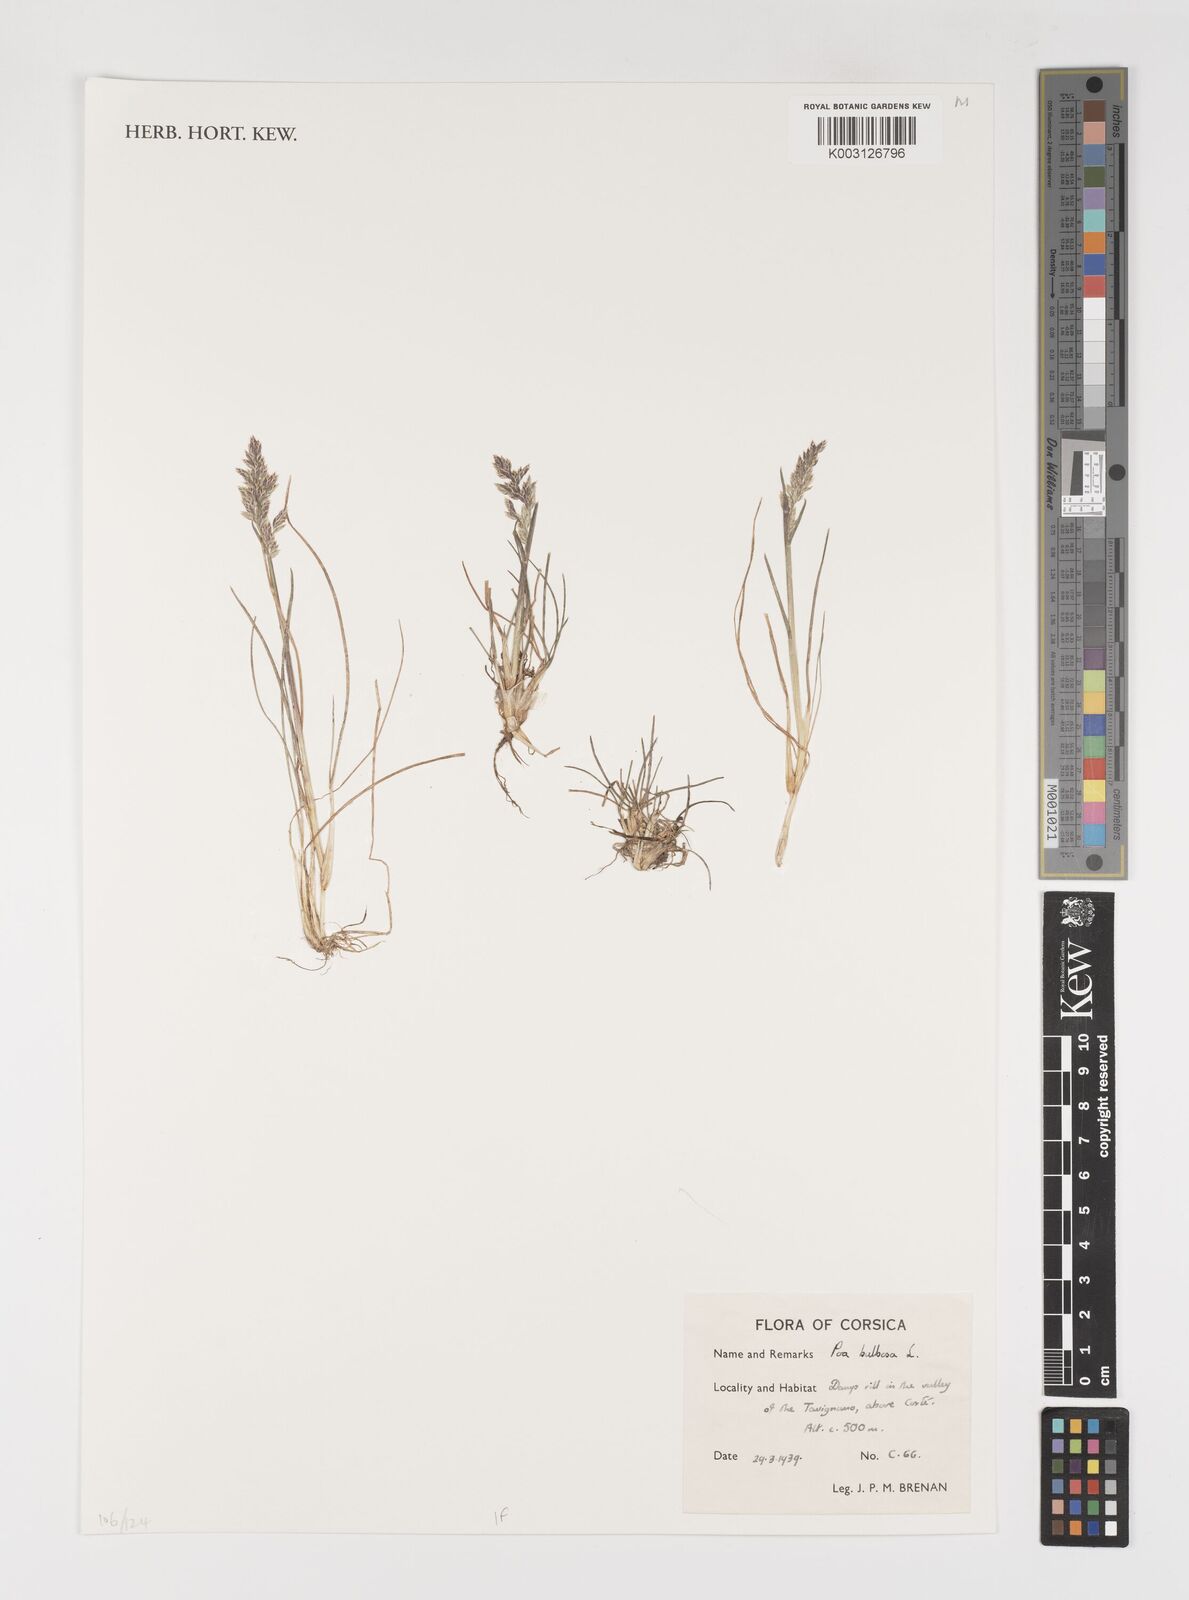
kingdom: Plantae
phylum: Tracheophyta
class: Liliopsida
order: Poales
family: Poaceae
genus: Poa
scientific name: Poa bulbosa
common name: Bulbous bluegrass
